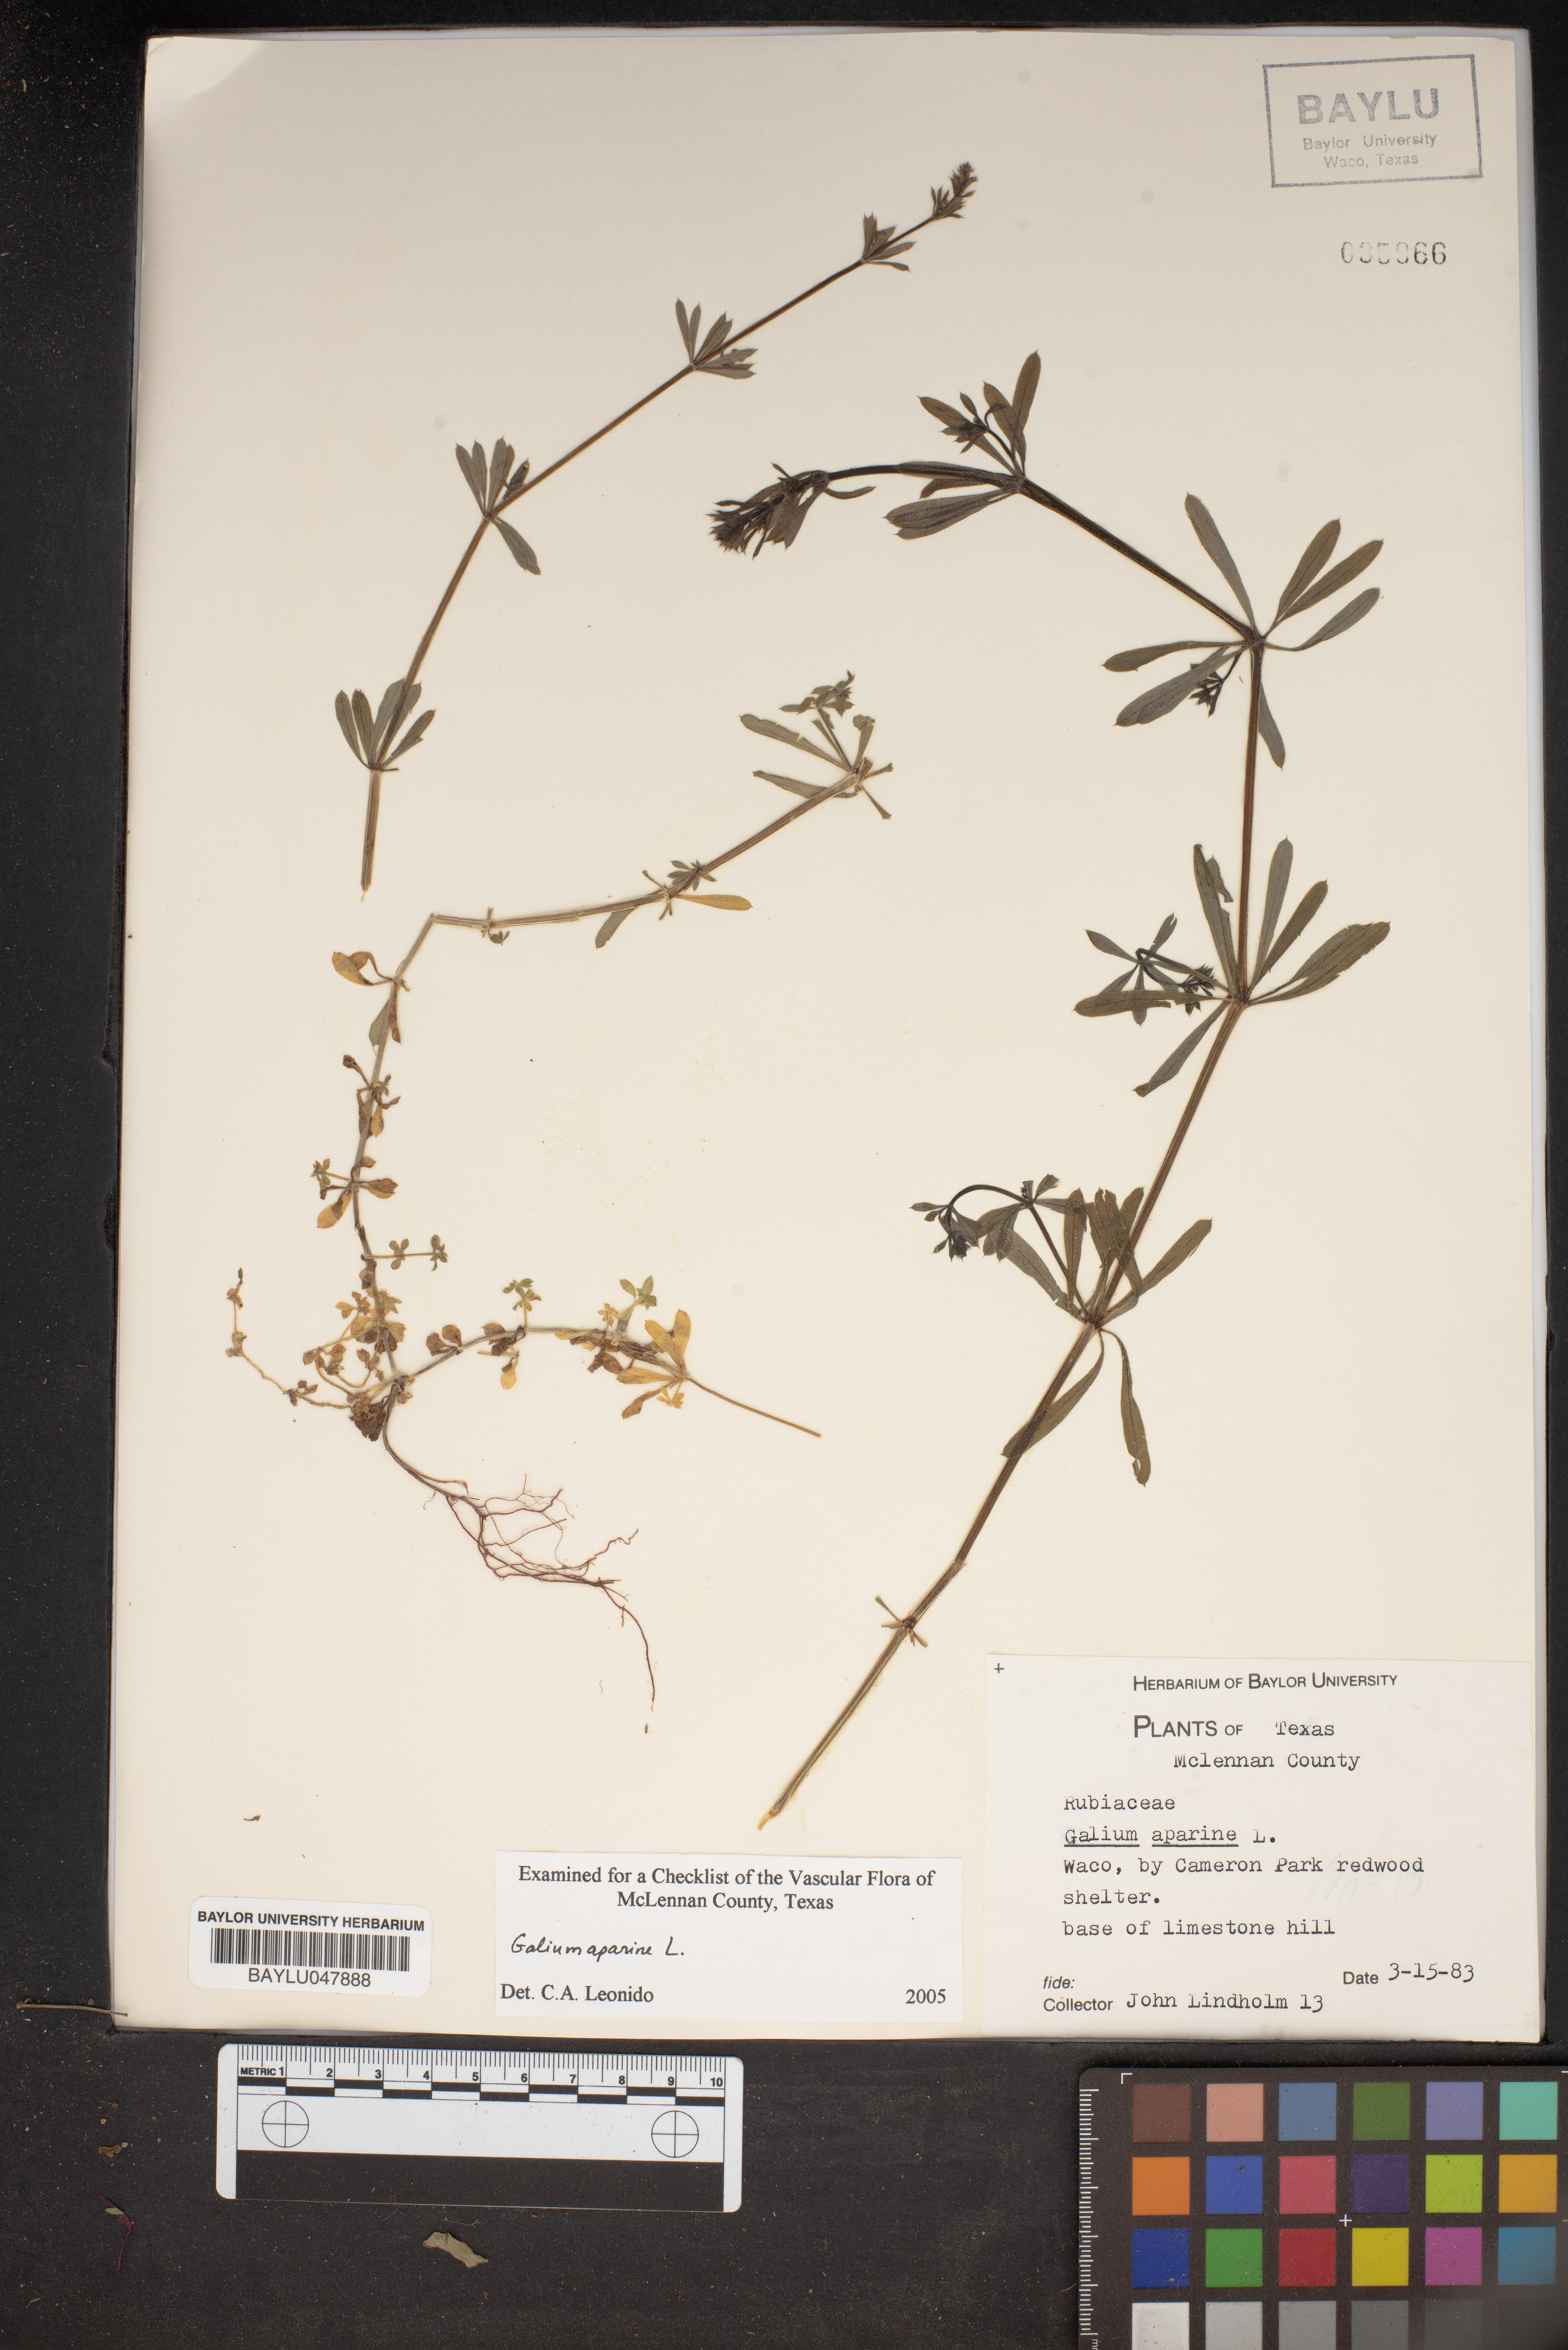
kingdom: Plantae
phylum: Tracheophyta
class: Magnoliopsida
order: Gentianales
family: Rubiaceae
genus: Galium
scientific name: Galium aparine
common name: Cleavers
